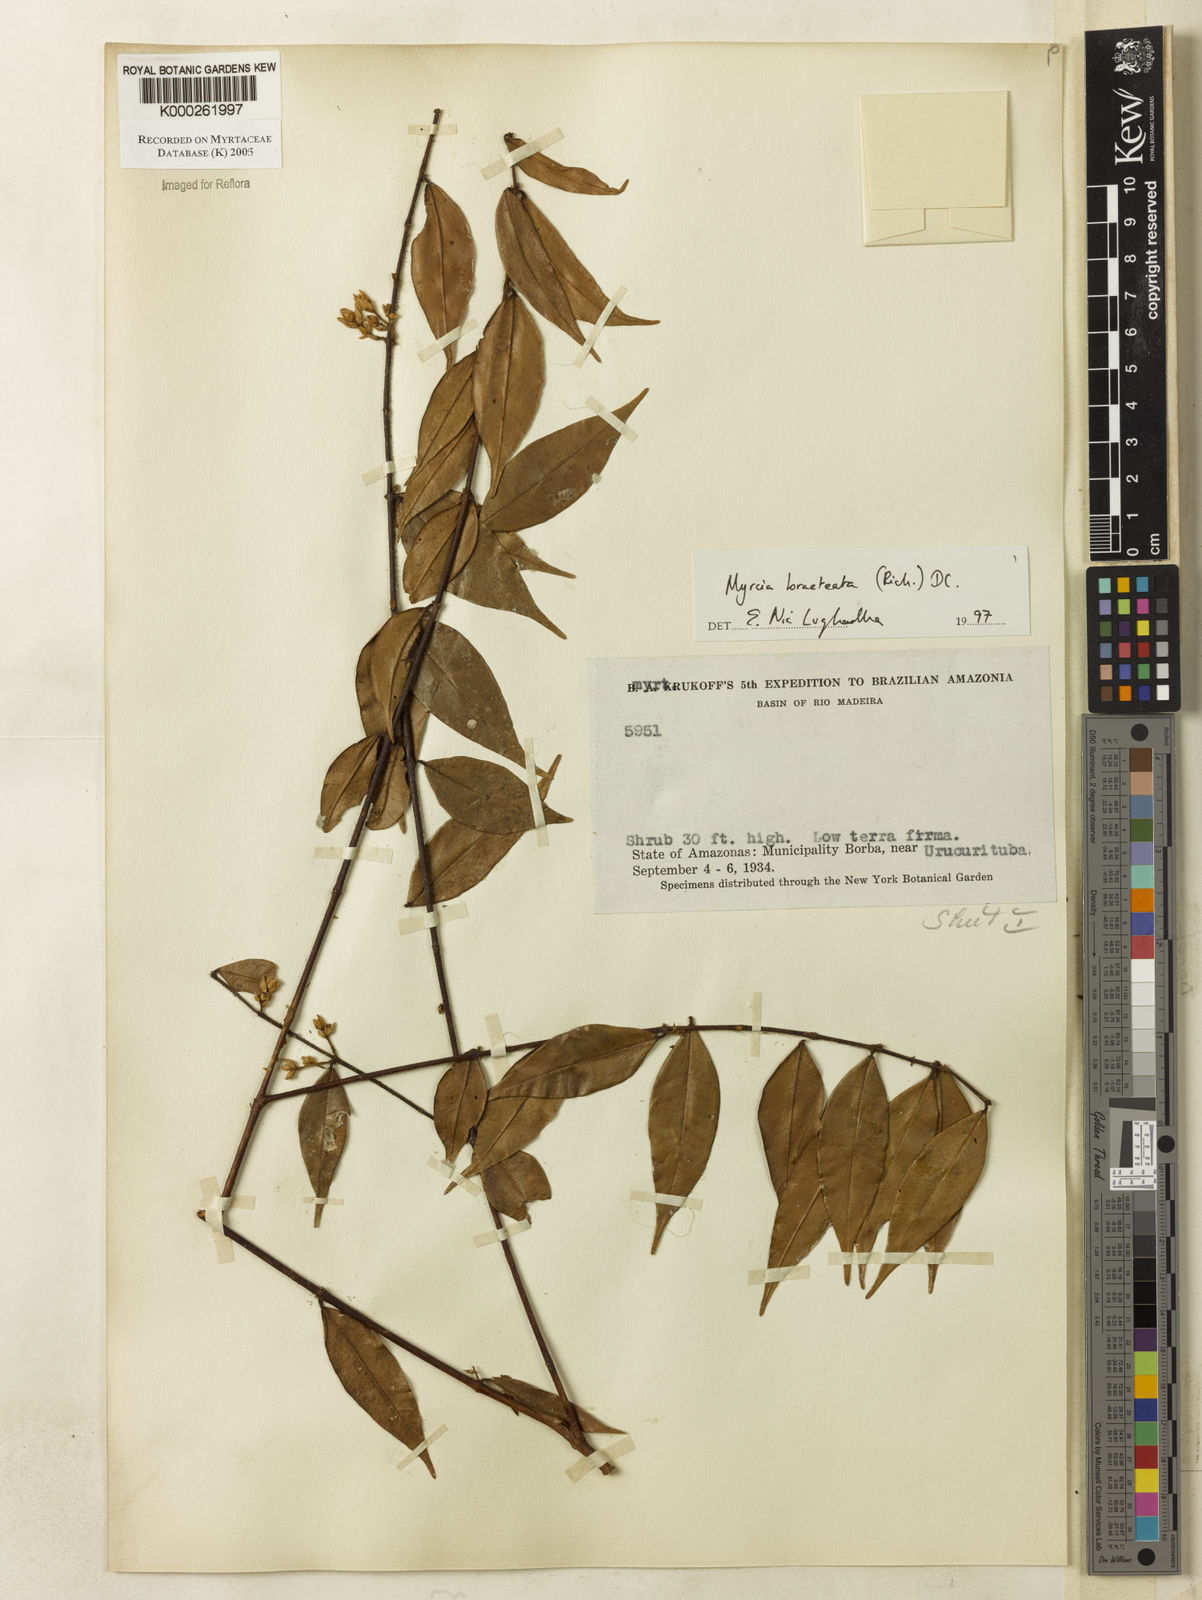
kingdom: Plantae
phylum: Tracheophyta
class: Magnoliopsida
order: Myrtales
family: Myrtaceae
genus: Myrcia
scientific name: Myrcia bracteata
